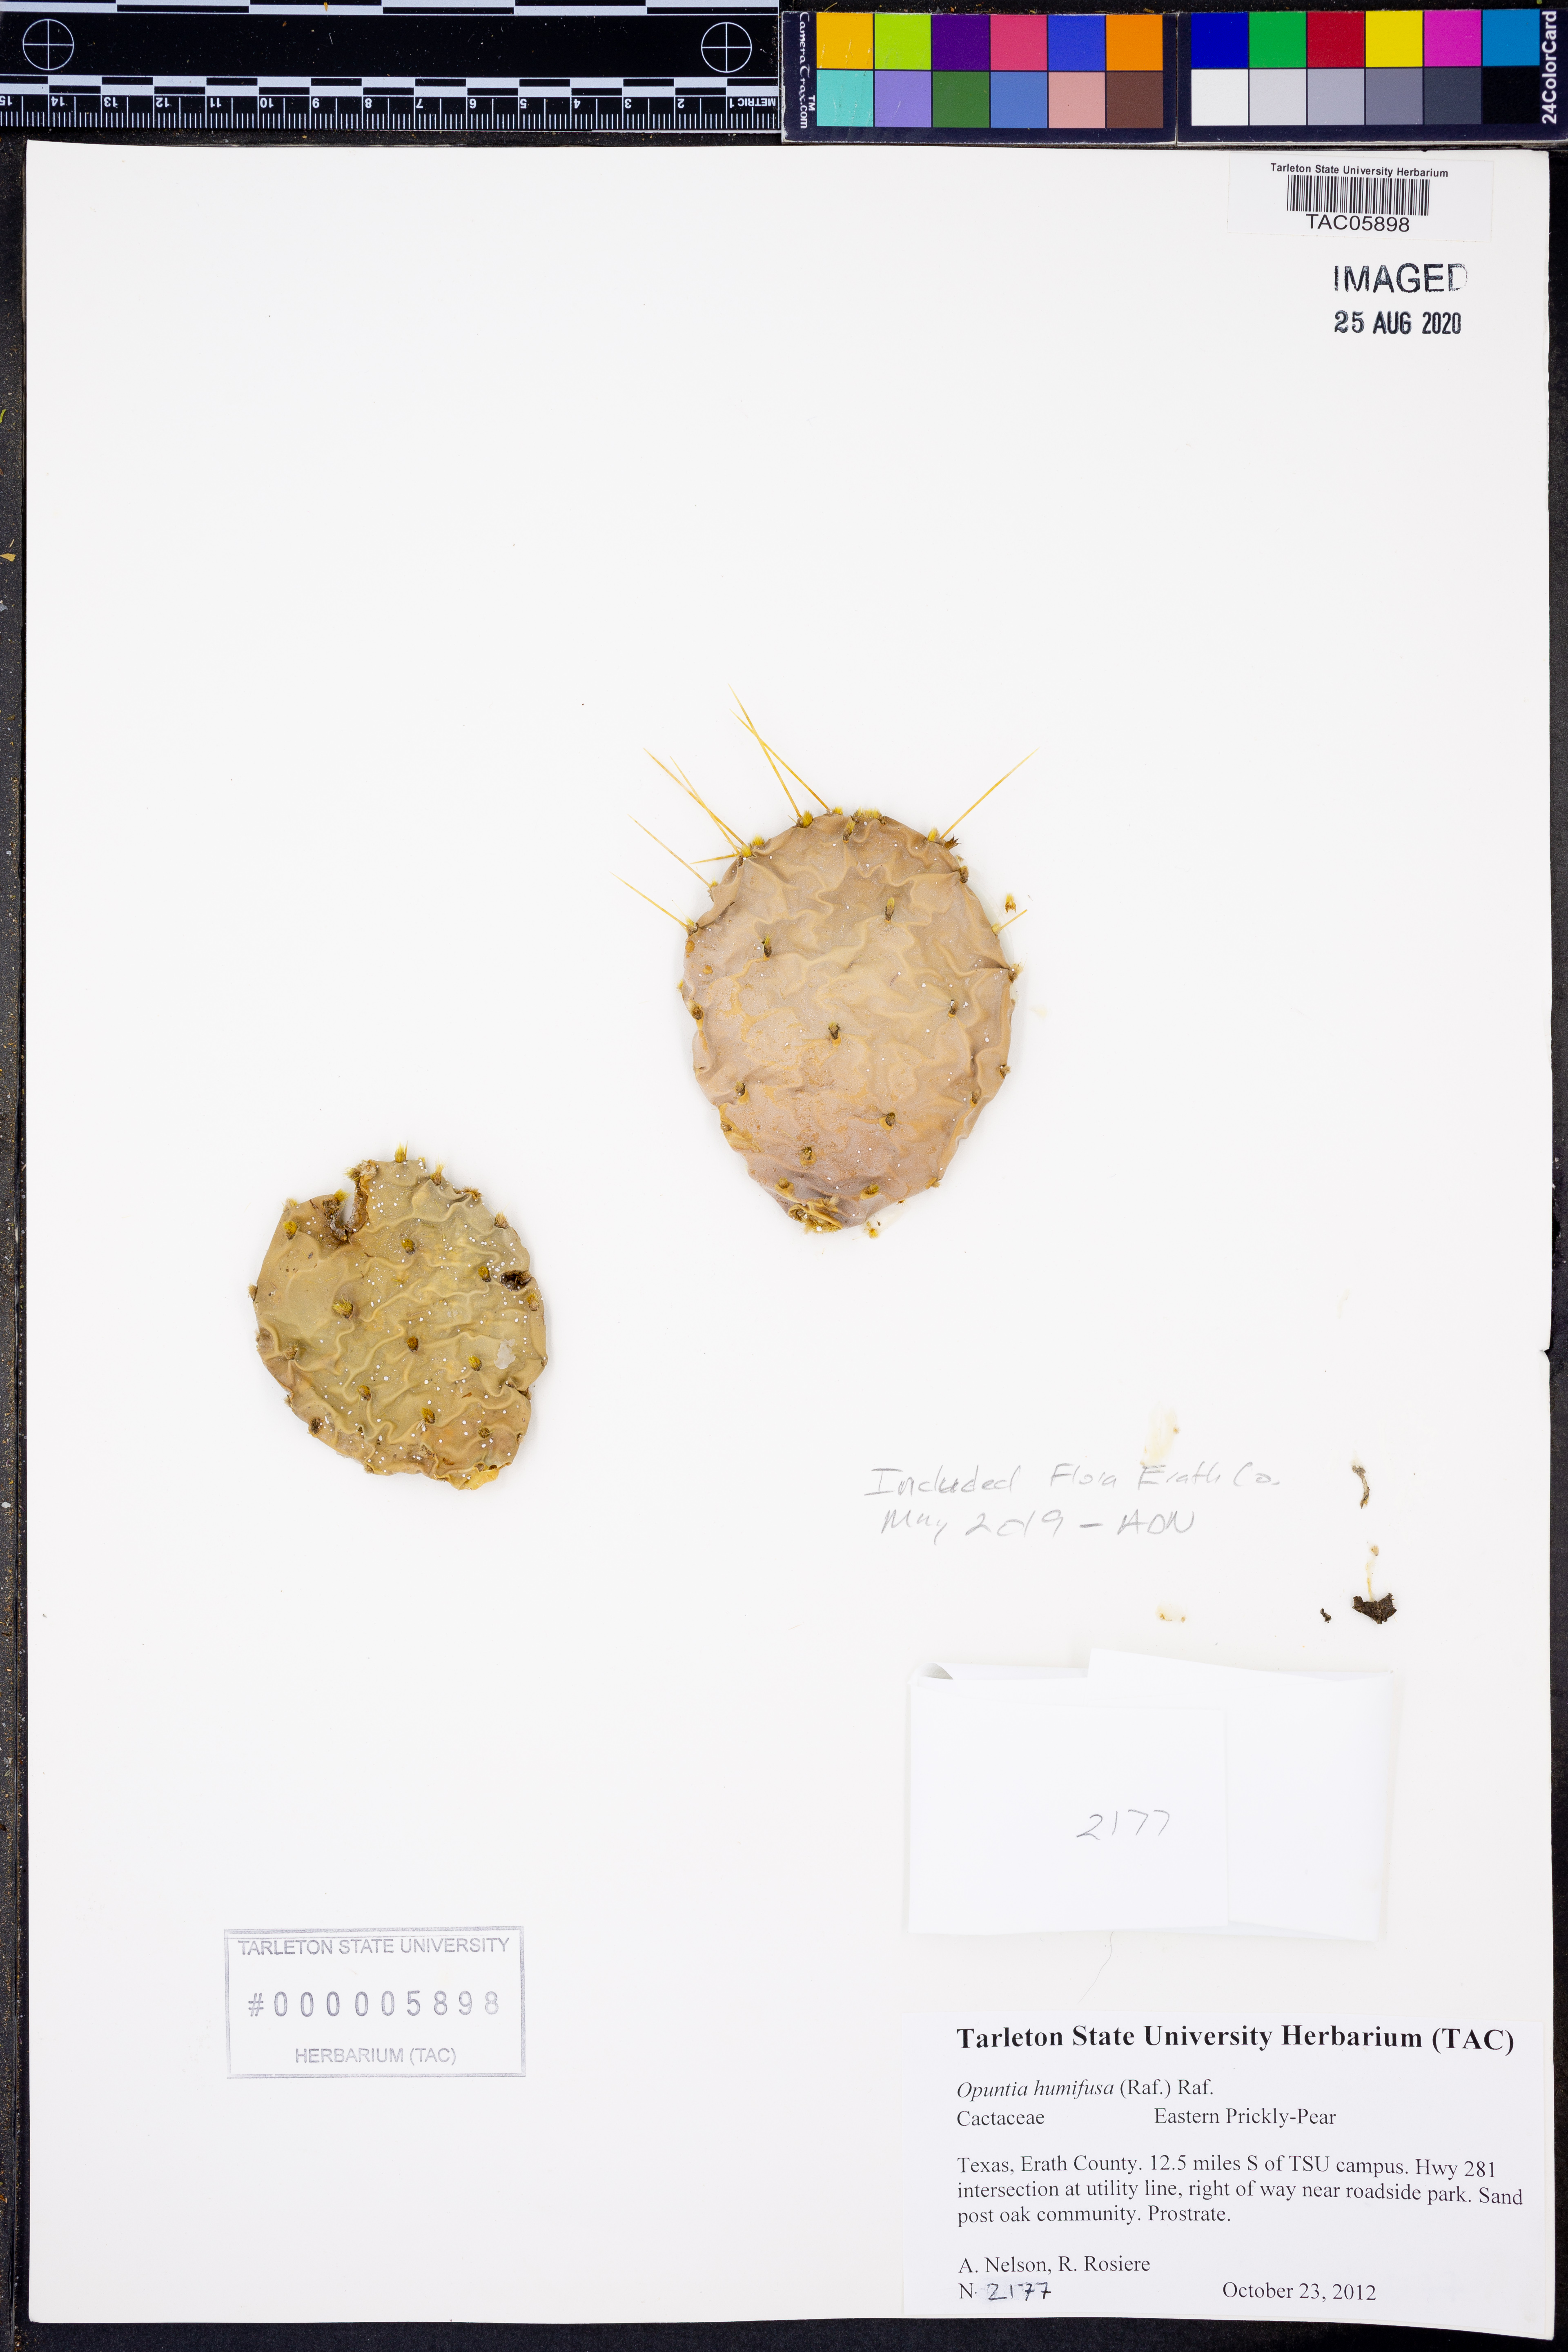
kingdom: Plantae
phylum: Tracheophyta
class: Magnoliopsida
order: Caryophyllales
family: Cactaceae
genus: Opuntia
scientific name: Opuntia humifusa
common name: Eastern prickly-pear
